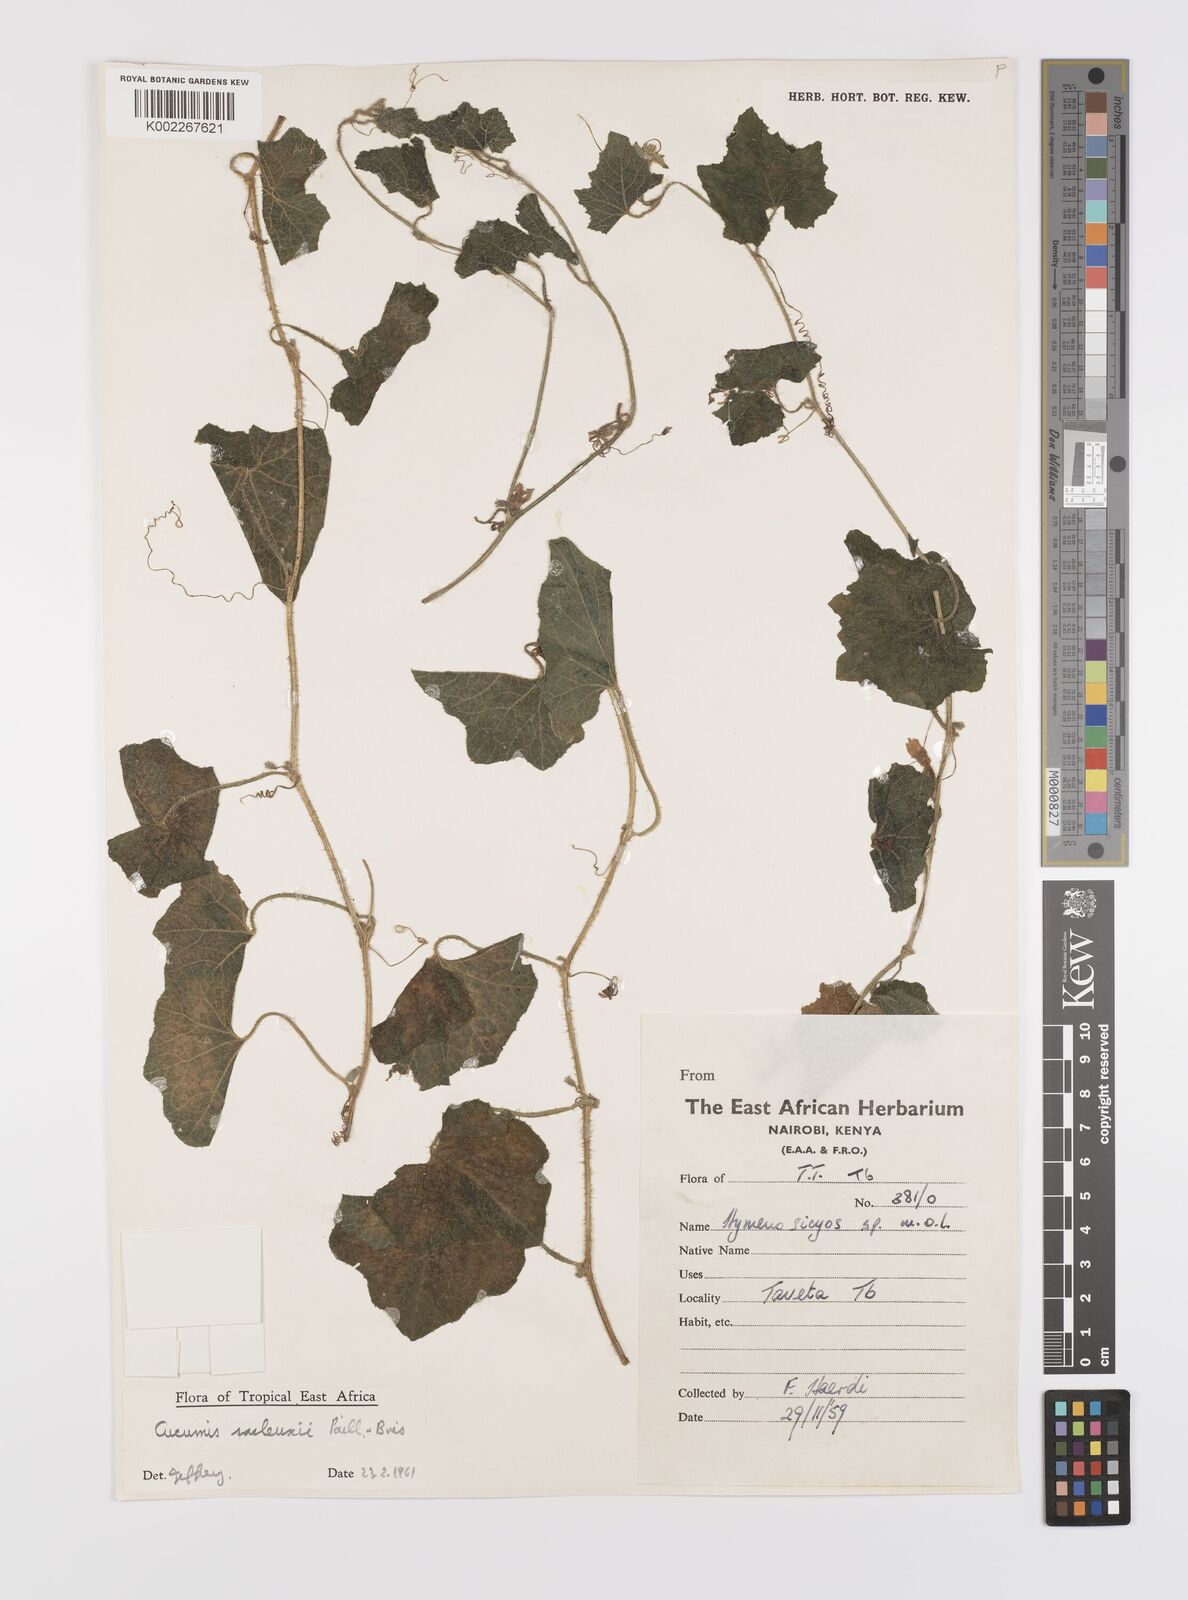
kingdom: Plantae
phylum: Tracheophyta
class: Magnoliopsida
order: Cucurbitales
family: Cucurbitaceae
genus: Cucumis
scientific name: Cucumis sacleuxii
